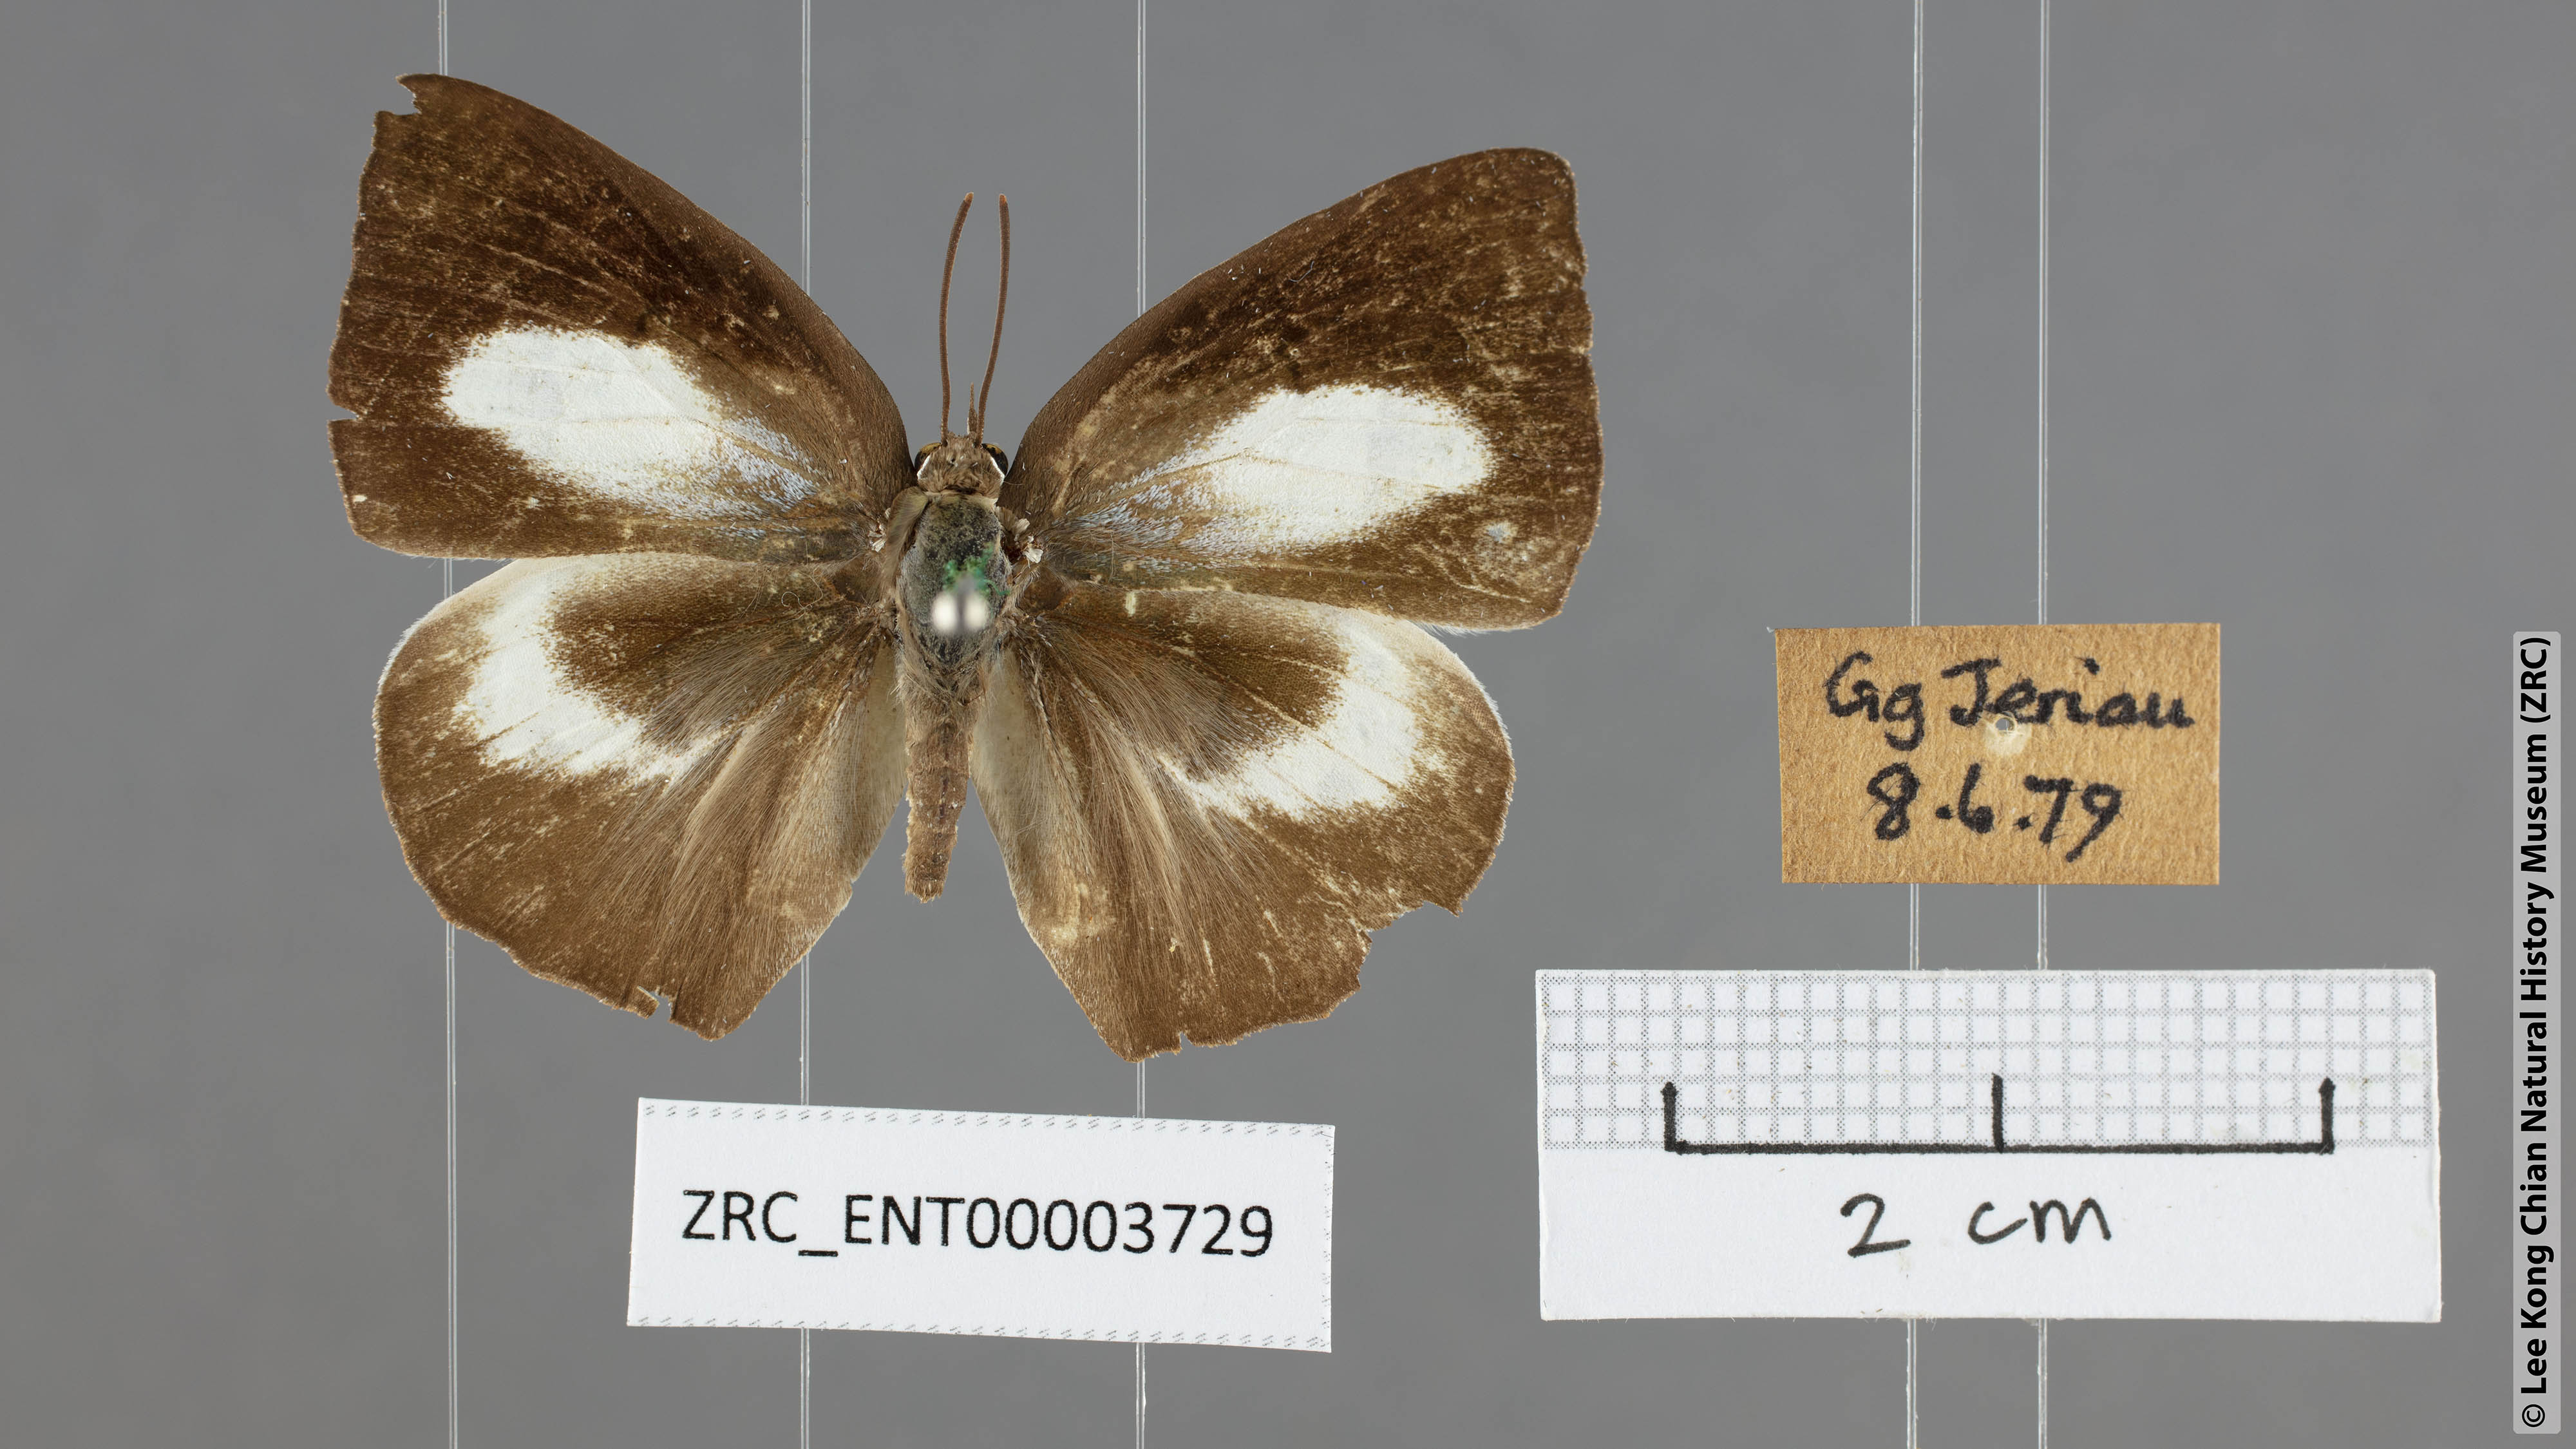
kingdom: Animalia
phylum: Arthropoda
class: Insecta
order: Lepidoptera
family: Lycaenidae
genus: Curetis
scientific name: Curetis bulis
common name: Bright sunbeam
